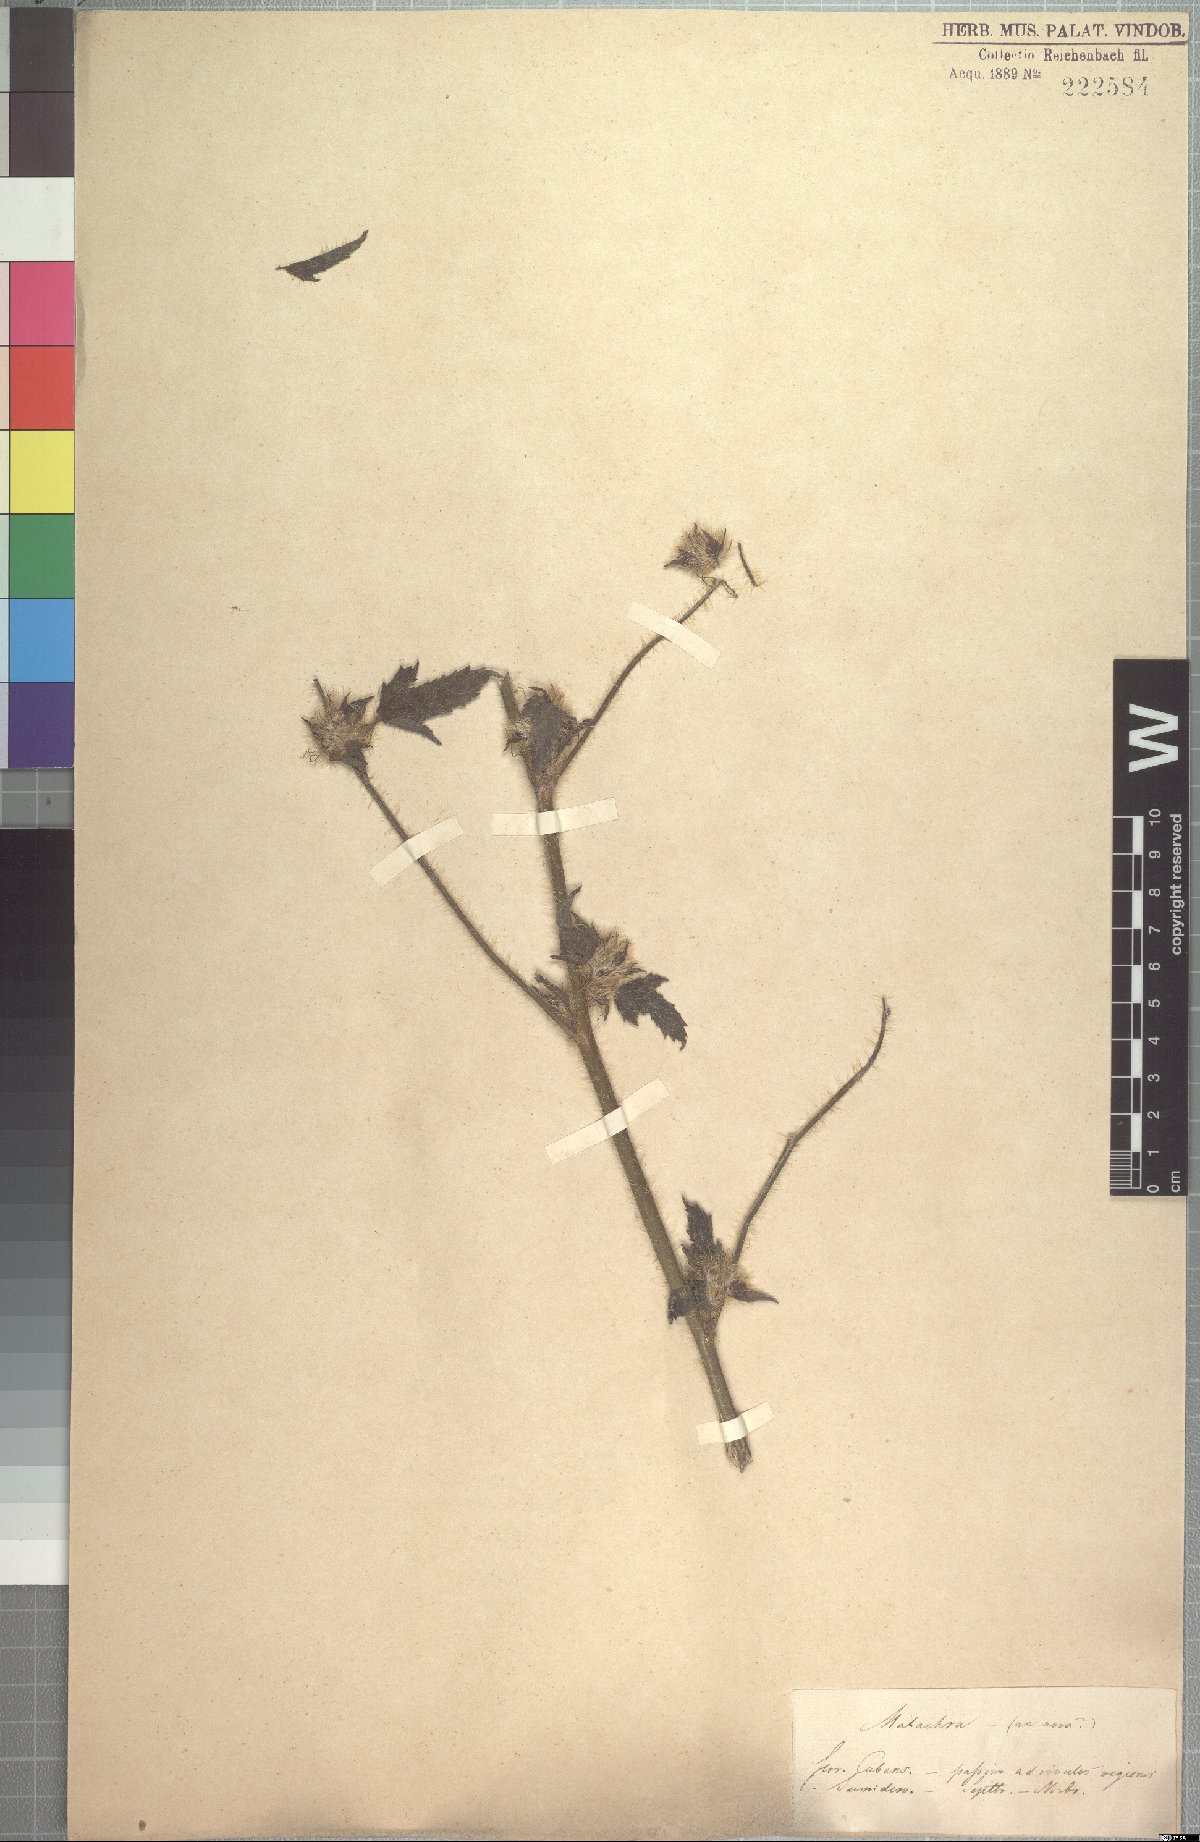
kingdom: Plantae
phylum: Tracheophyta
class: Magnoliopsida
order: Malvales
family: Malvaceae
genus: Malachra
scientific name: Malachra urens
